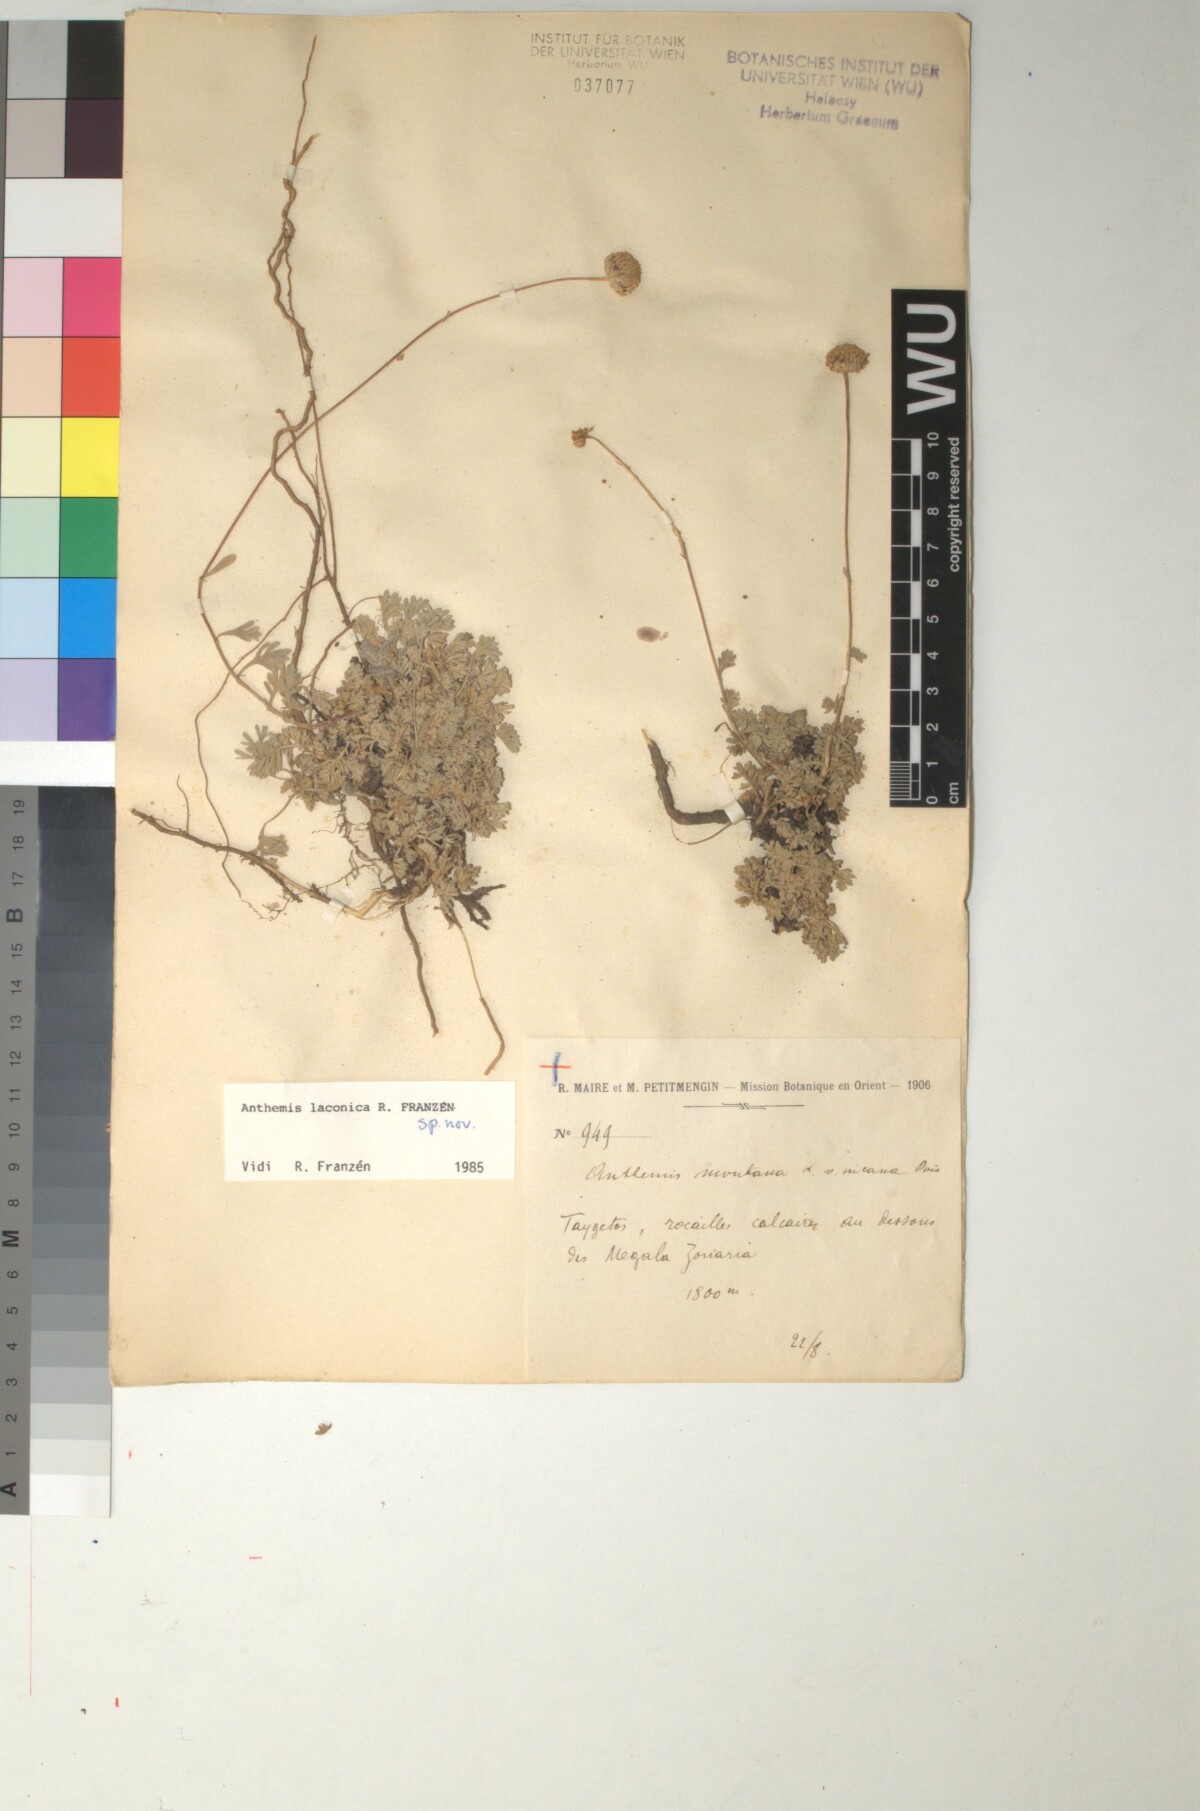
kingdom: Plantae
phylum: Tracheophyta
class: Magnoliopsida
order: Asterales
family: Asteraceae
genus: Anthemis
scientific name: Anthemis laconica
